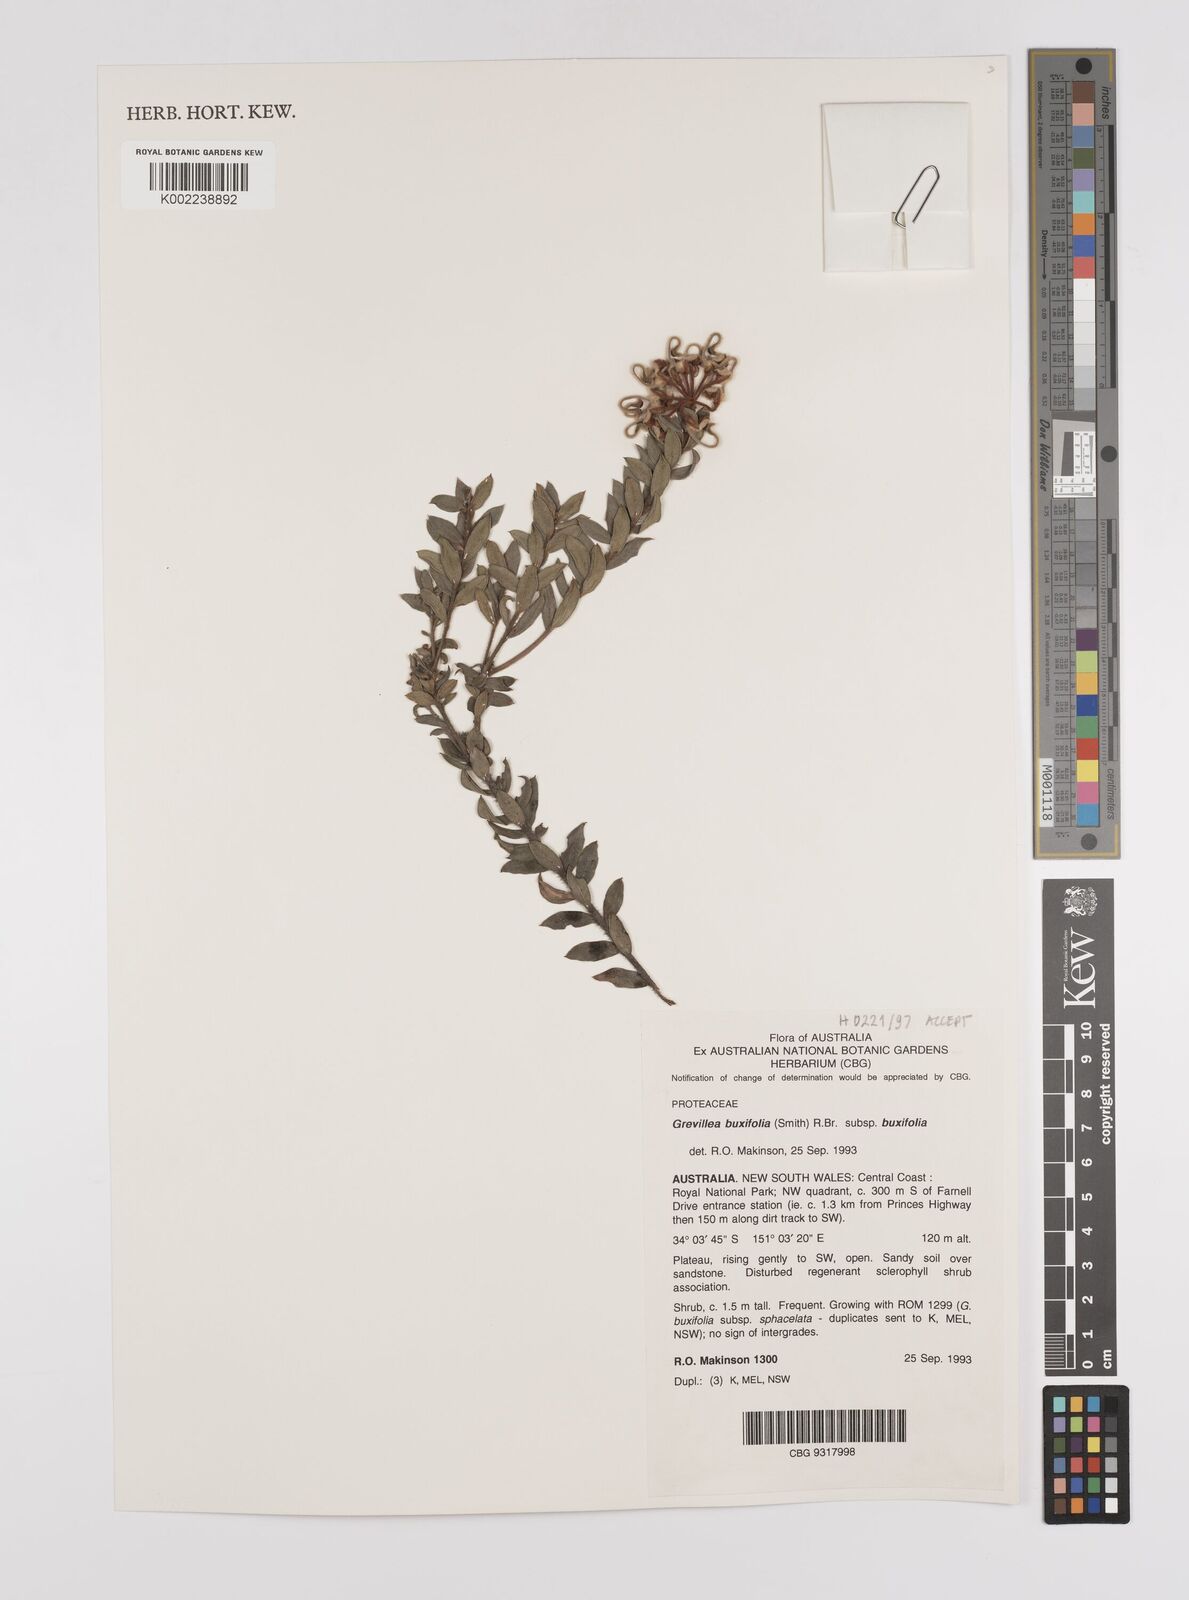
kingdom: Plantae
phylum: Tracheophyta
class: Magnoliopsida
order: Proteales
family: Proteaceae
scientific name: Proteaceae
